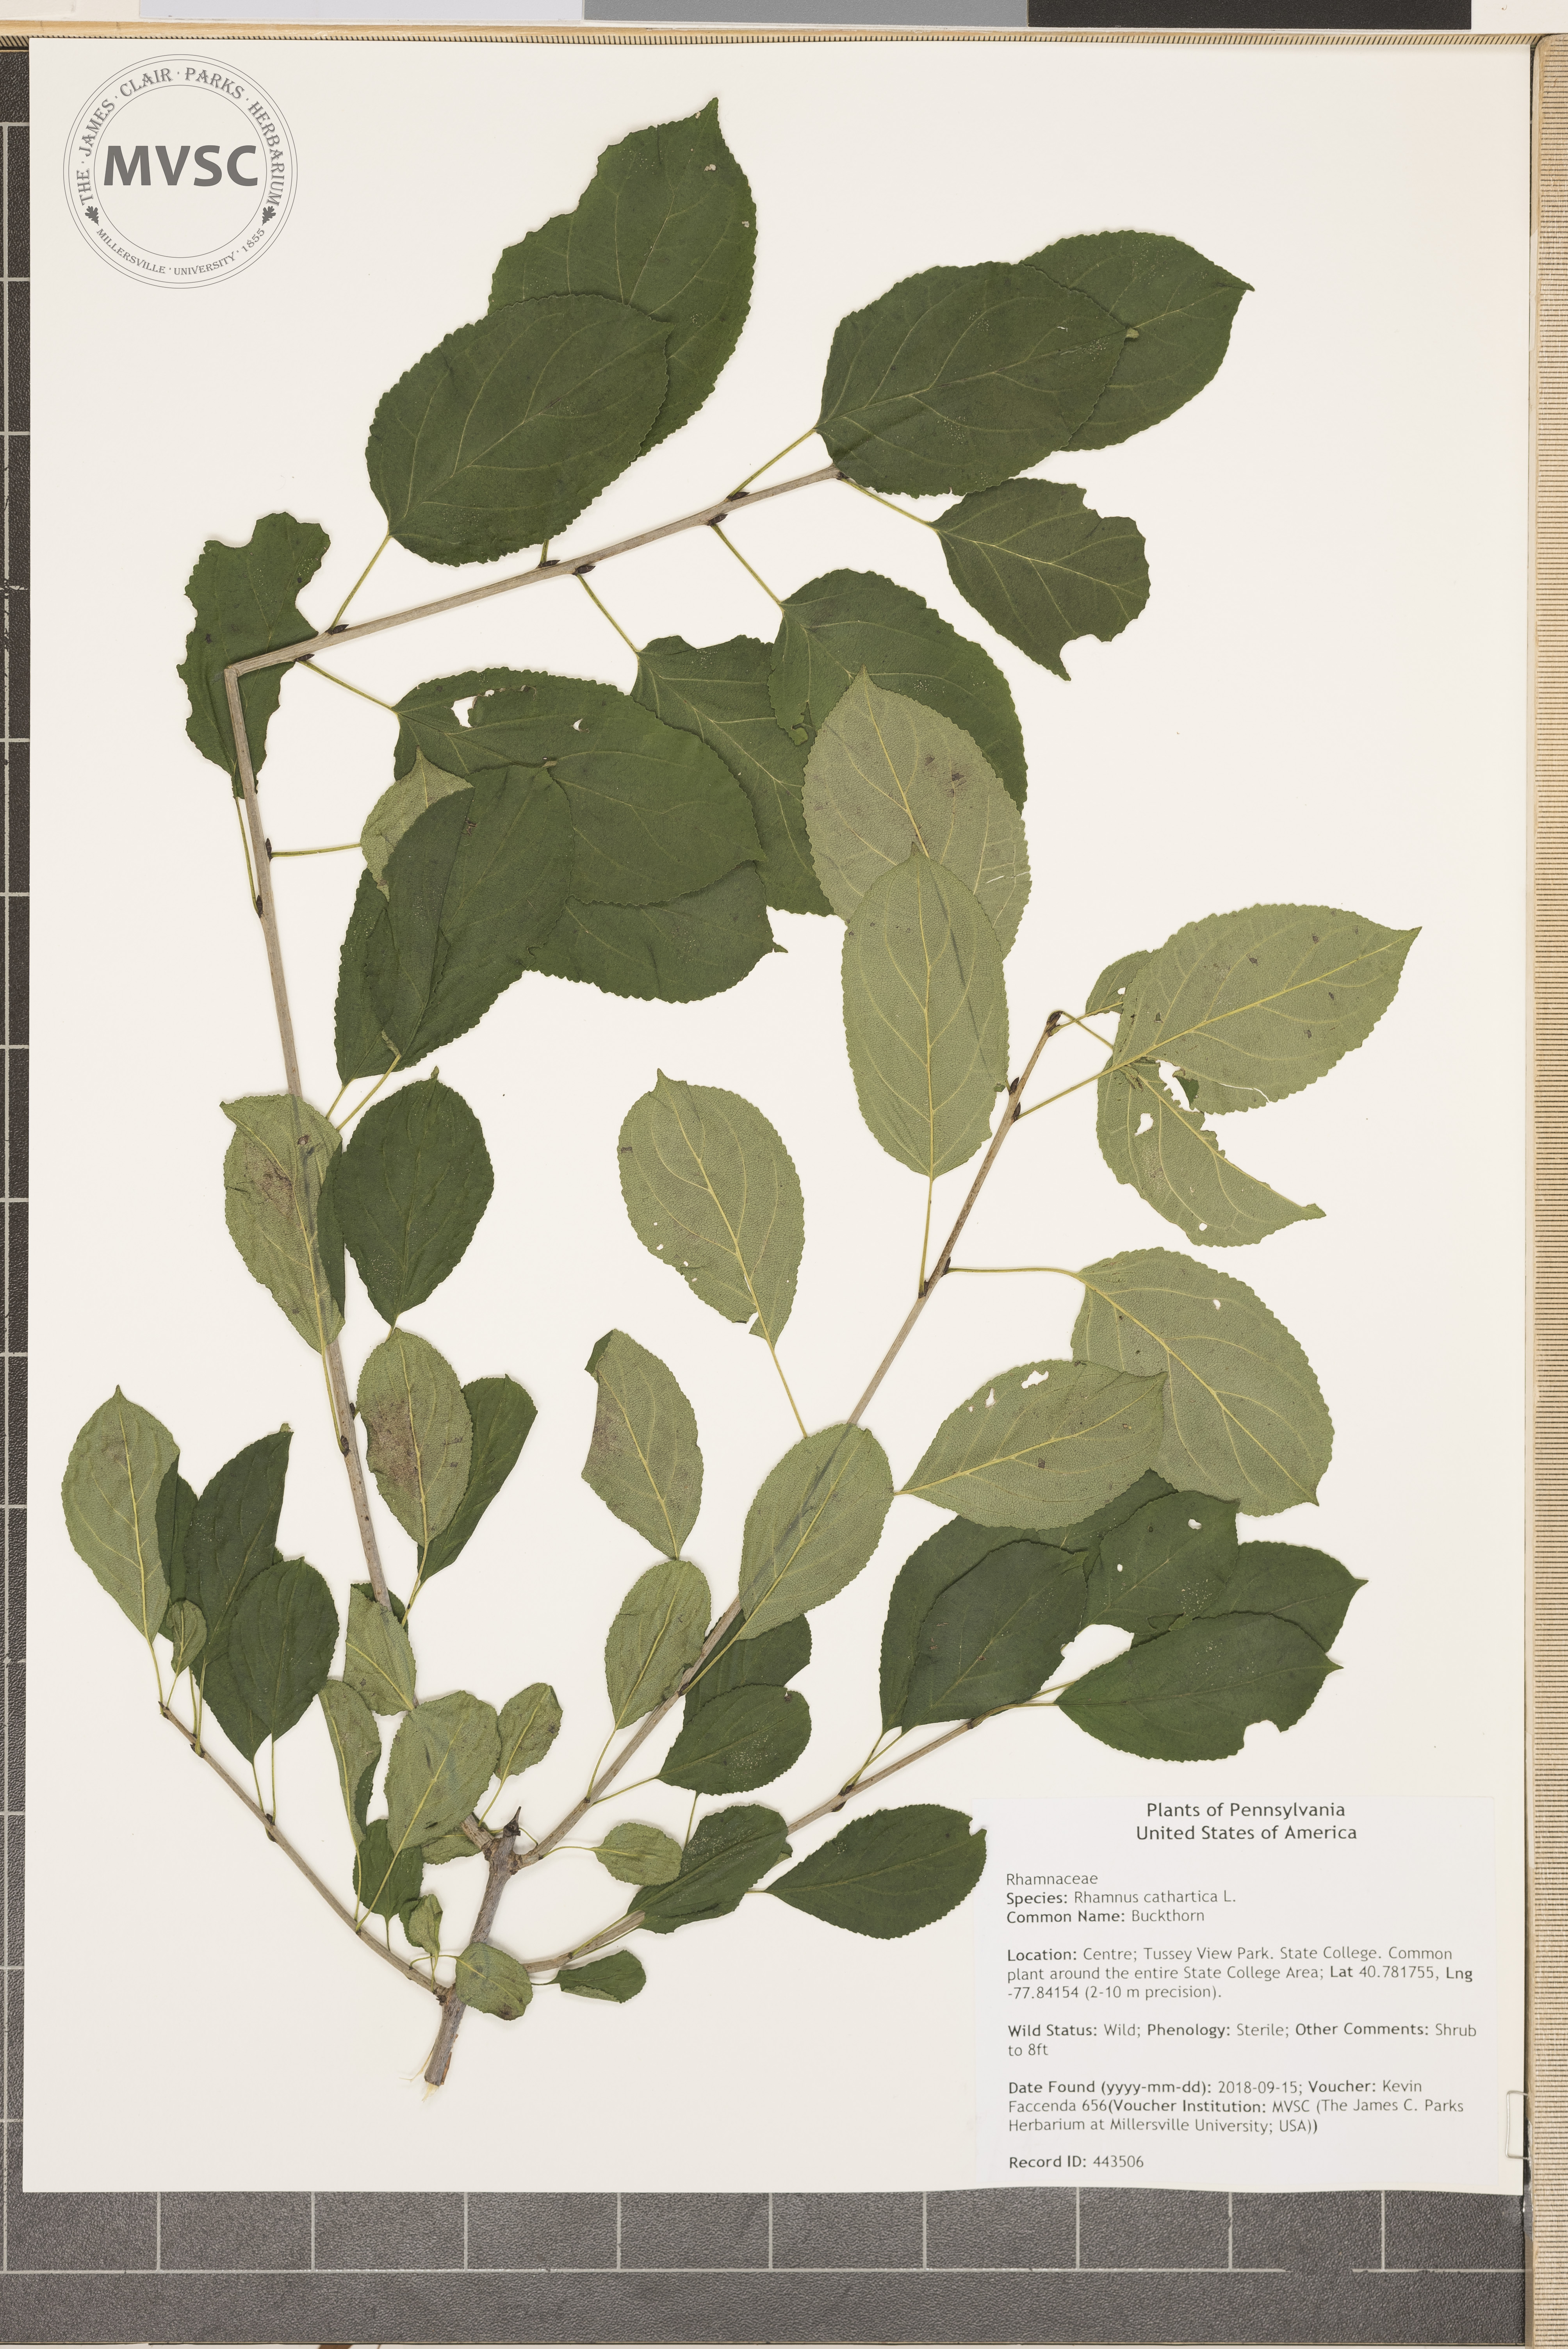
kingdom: Plantae
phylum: Tracheophyta
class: Magnoliopsida
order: Rosales
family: Rhamnaceae
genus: Rhamnus
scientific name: Rhamnus cathartica
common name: Buckthorn
